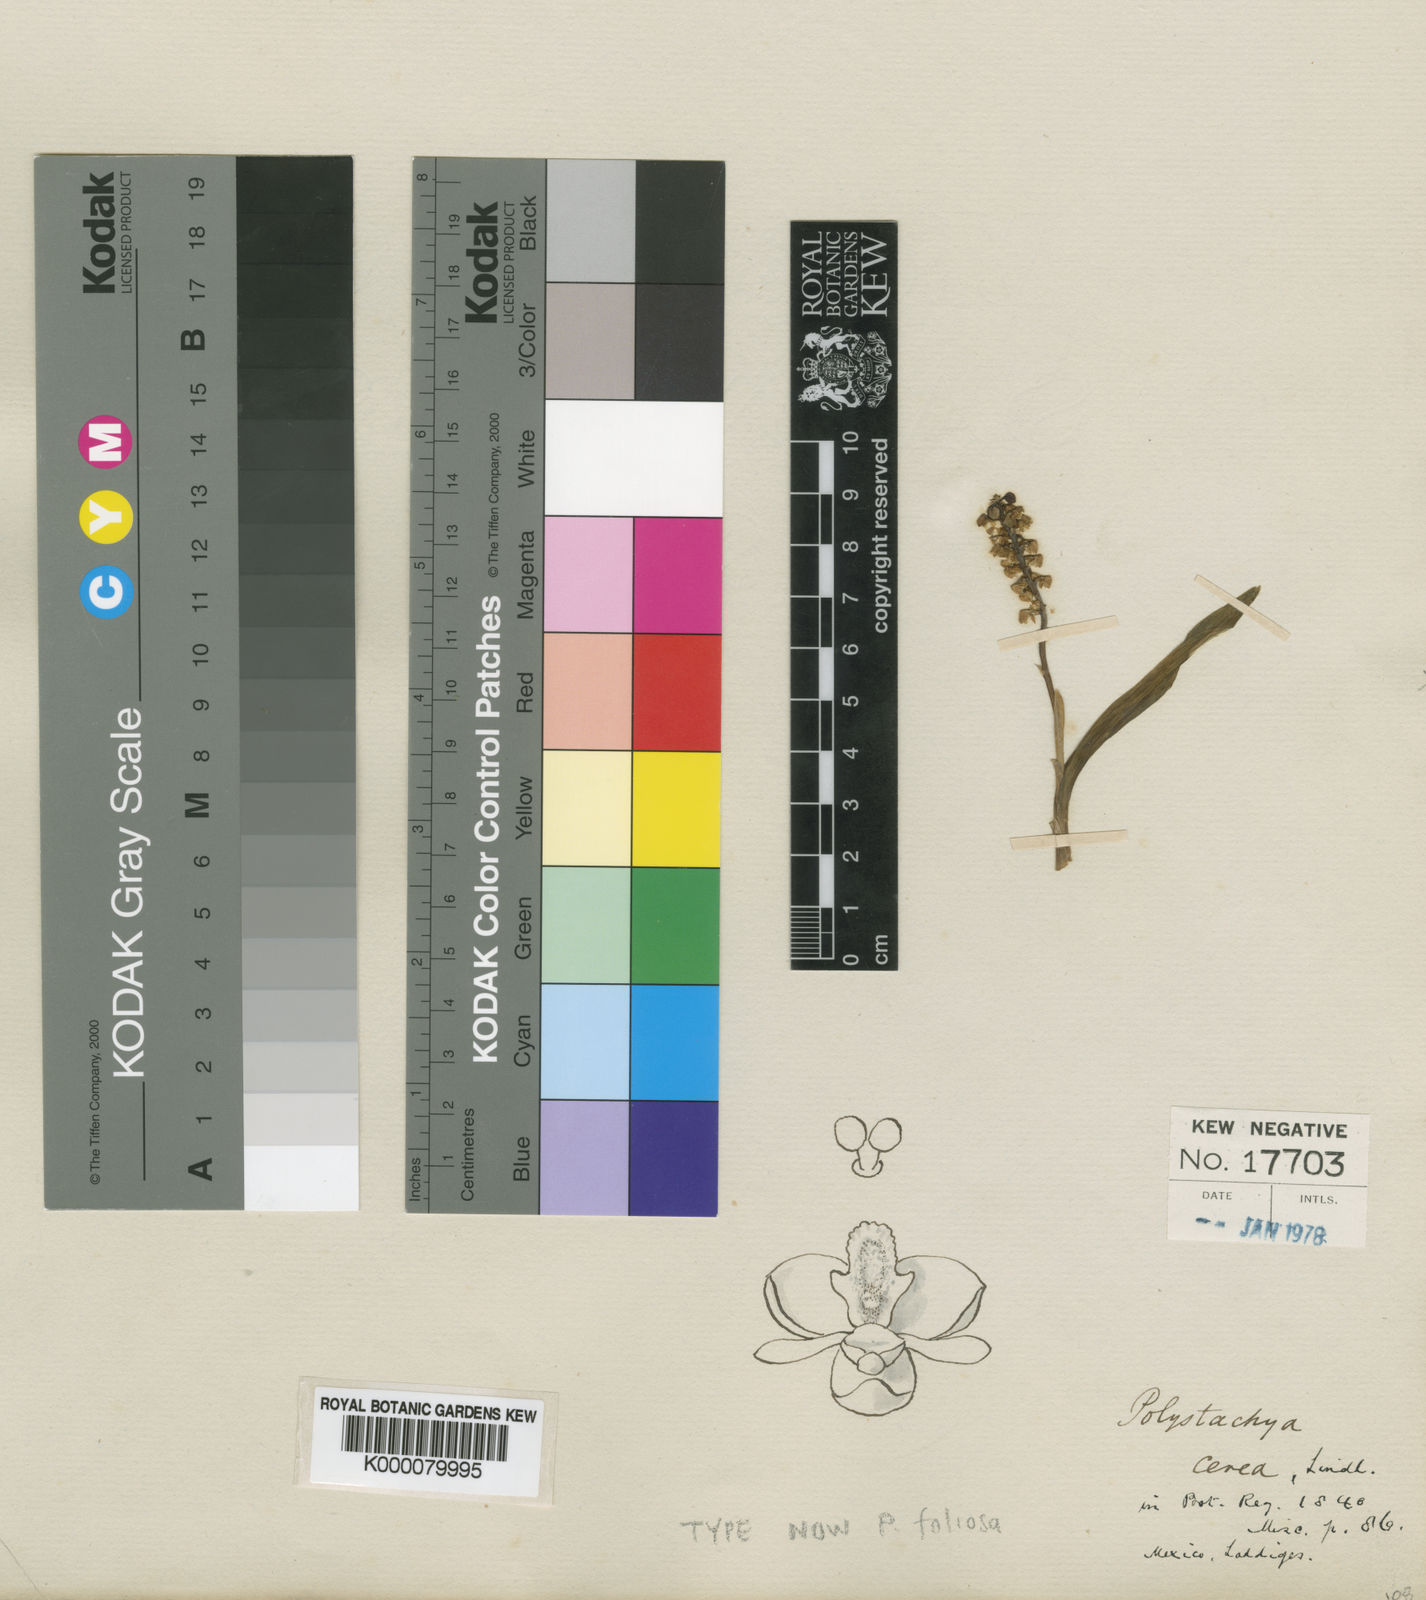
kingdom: Plantae
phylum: Tracheophyta
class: Liliopsida
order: Asparagales
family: Orchidaceae
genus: Polystachya
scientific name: Polystachya foliosa
